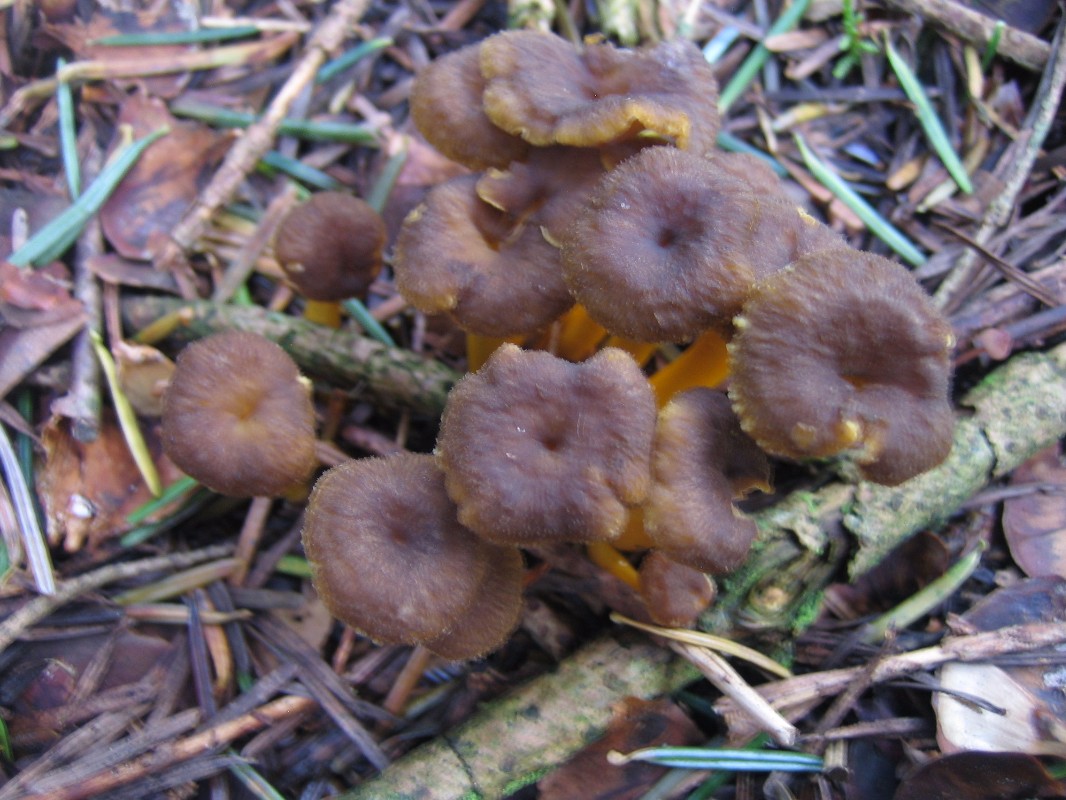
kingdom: Fungi
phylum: Basidiomycota
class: Agaricomycetes
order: Cantharellales
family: Hydnaceae
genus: Craterellus
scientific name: Craterellus tubaeformis
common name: tragt-kantarel
